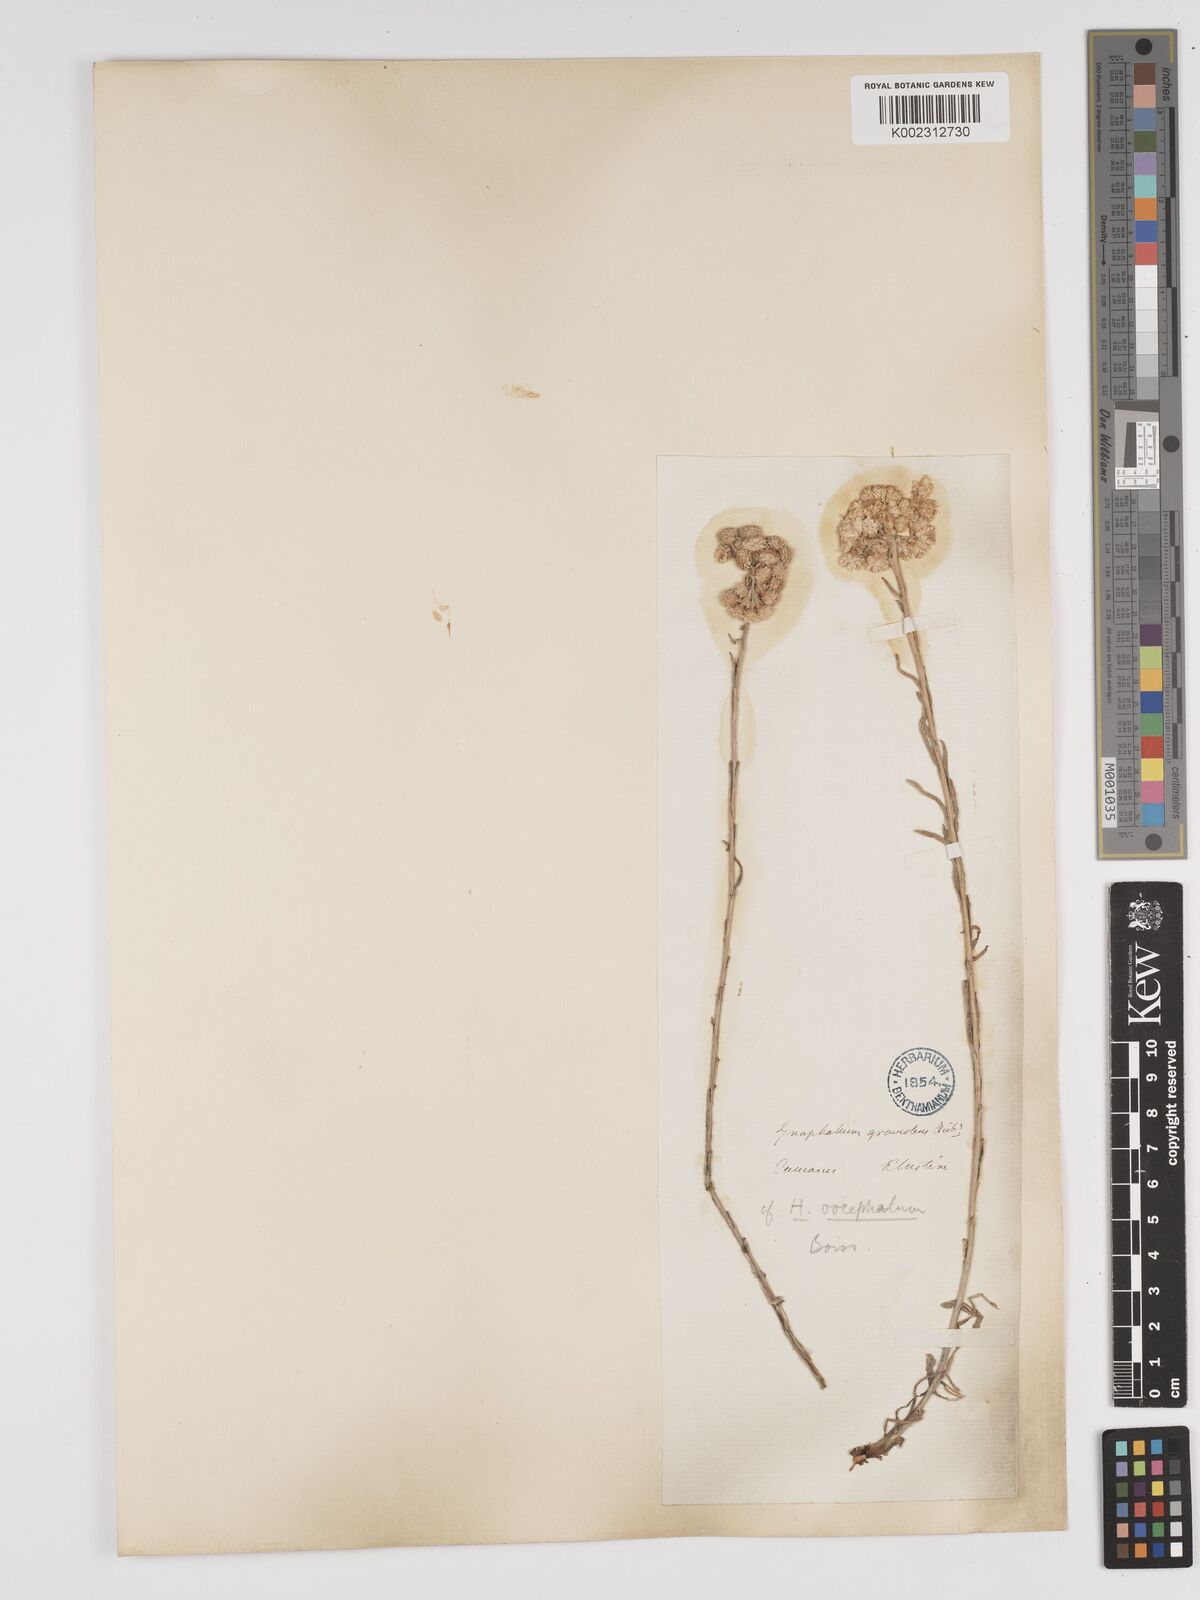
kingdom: Plantae
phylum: Tracheophyta
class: Magnoliopsida
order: Asterales
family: Asteraceae
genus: Helichrysum
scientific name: Helichrysum oocephalum
